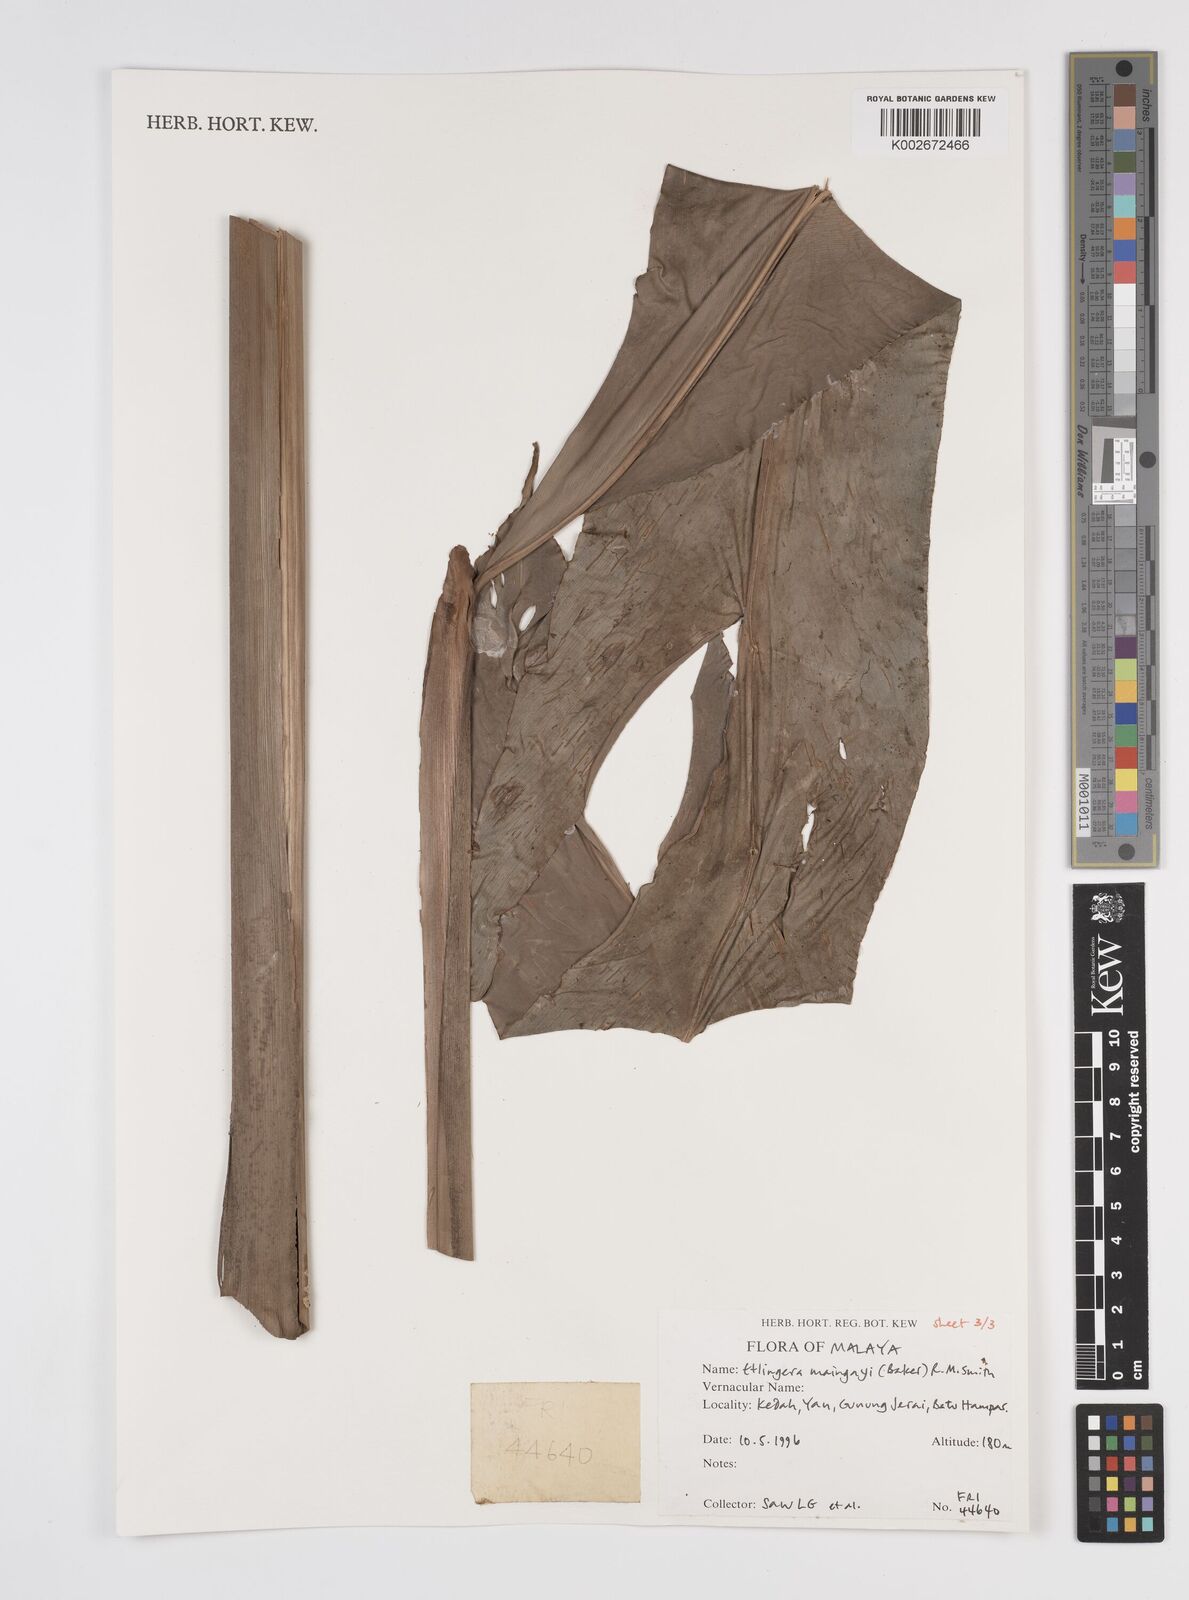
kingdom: Plantae
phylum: Tracheophyta
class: Liliopsida
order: Zingiberales
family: Zingiberaceae
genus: Etlingera
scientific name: Etlingera maingayi
